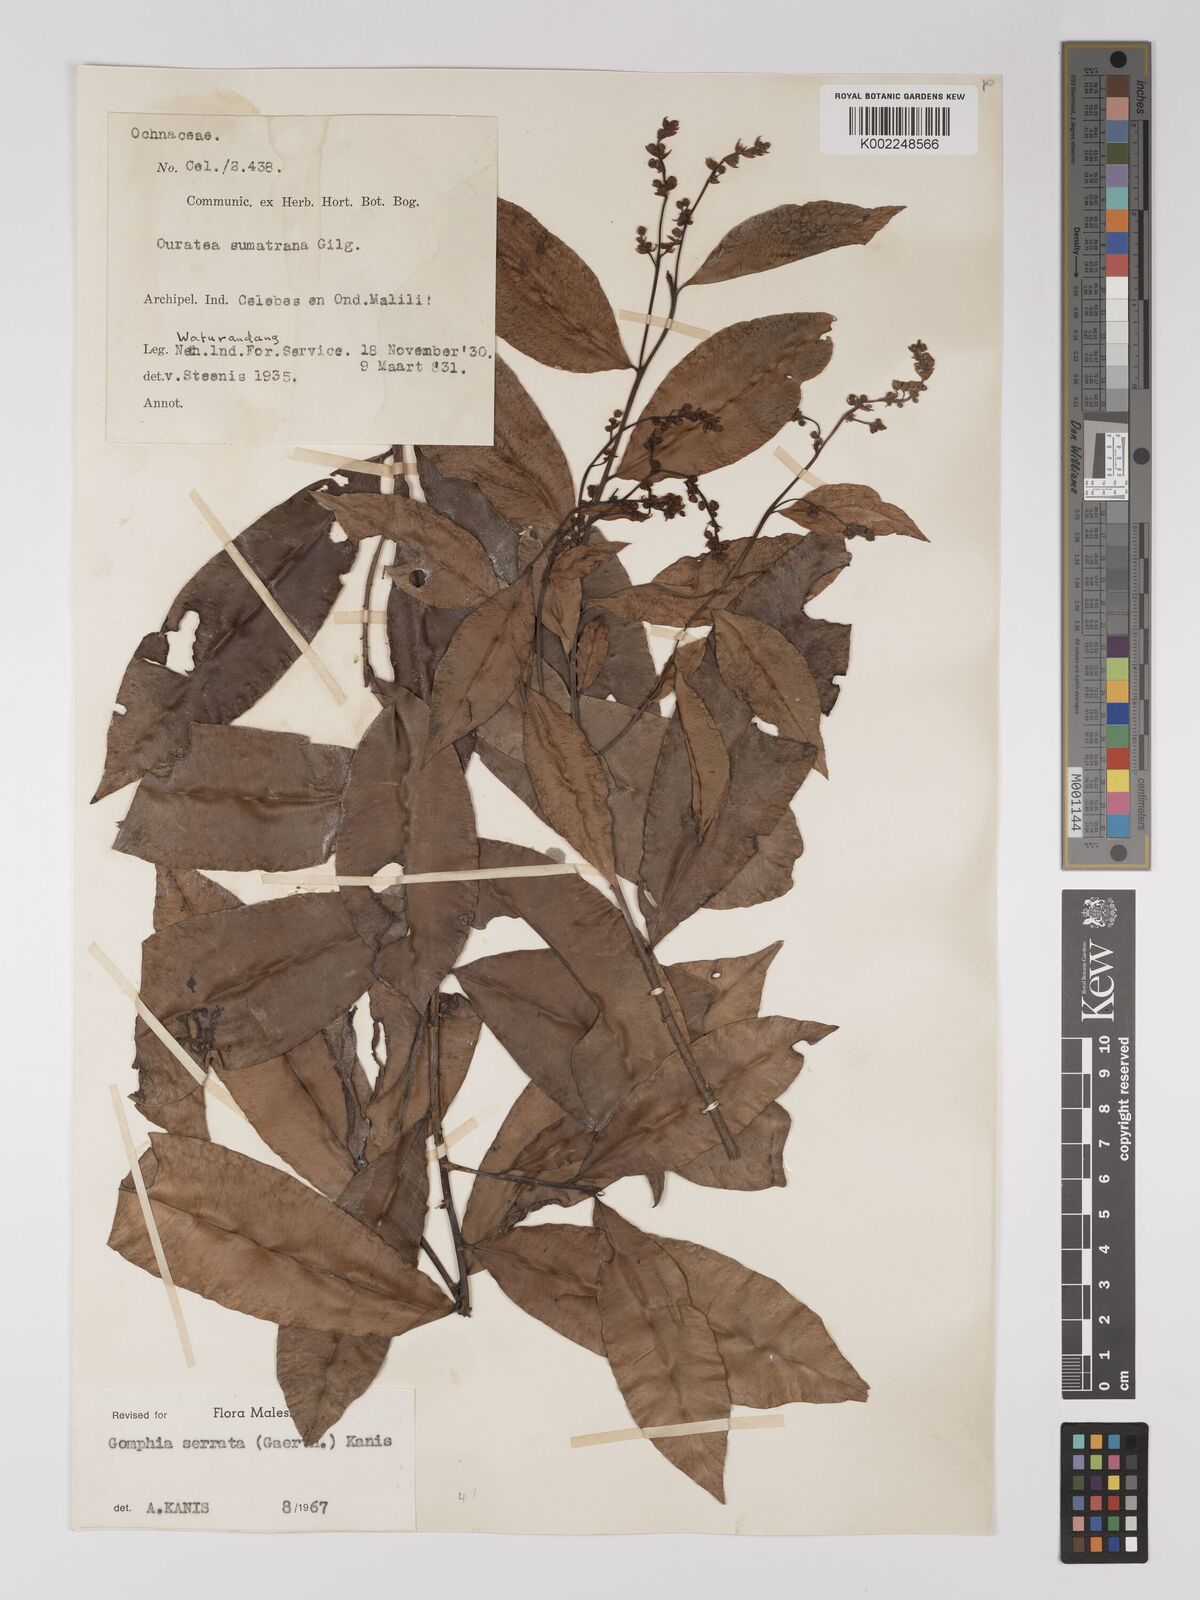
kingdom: Plantae
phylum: Tracheophyta
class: Magnoliopsida
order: Malpighiales
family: Ochnaceae
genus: Gomphia
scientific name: Gomphia serrata
